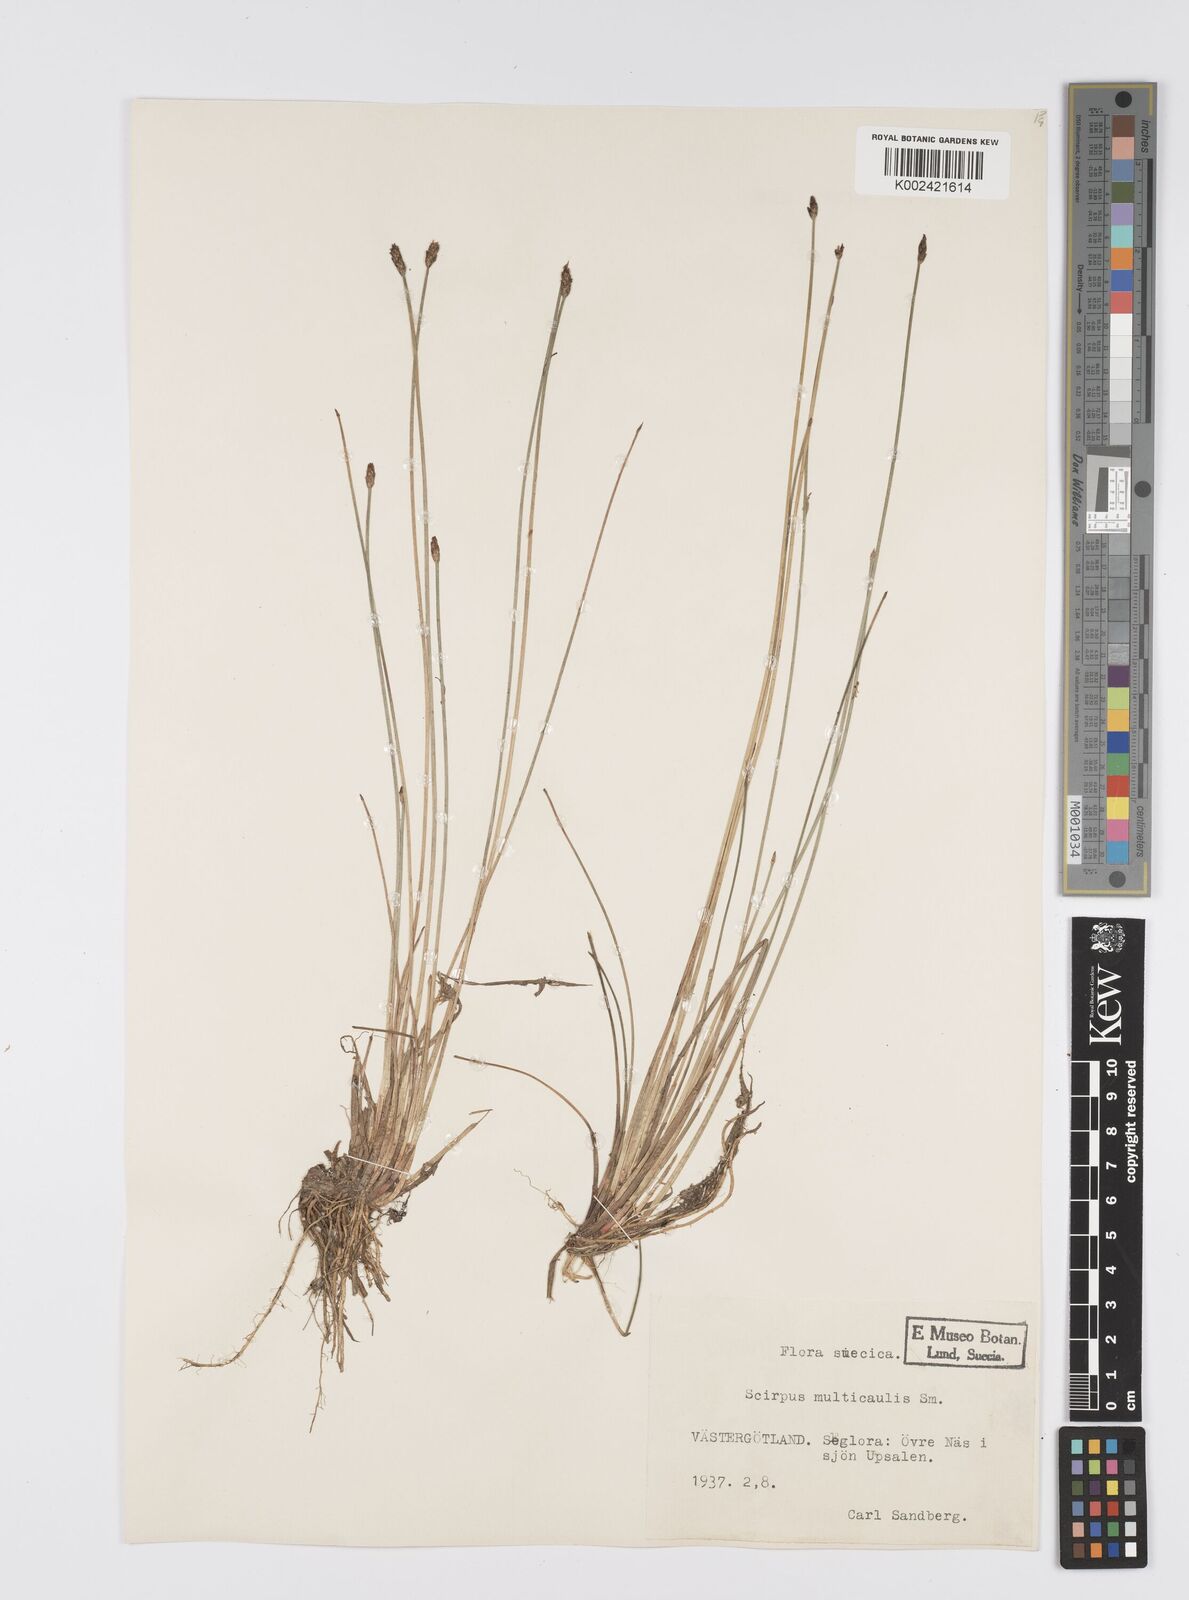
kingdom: Plantae
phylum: Tracheophyta
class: Liliopsida
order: Poales
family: Cyperaceae
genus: Eleocharis
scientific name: Eleocharis multicaulis
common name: Many-stalked spike-rush
